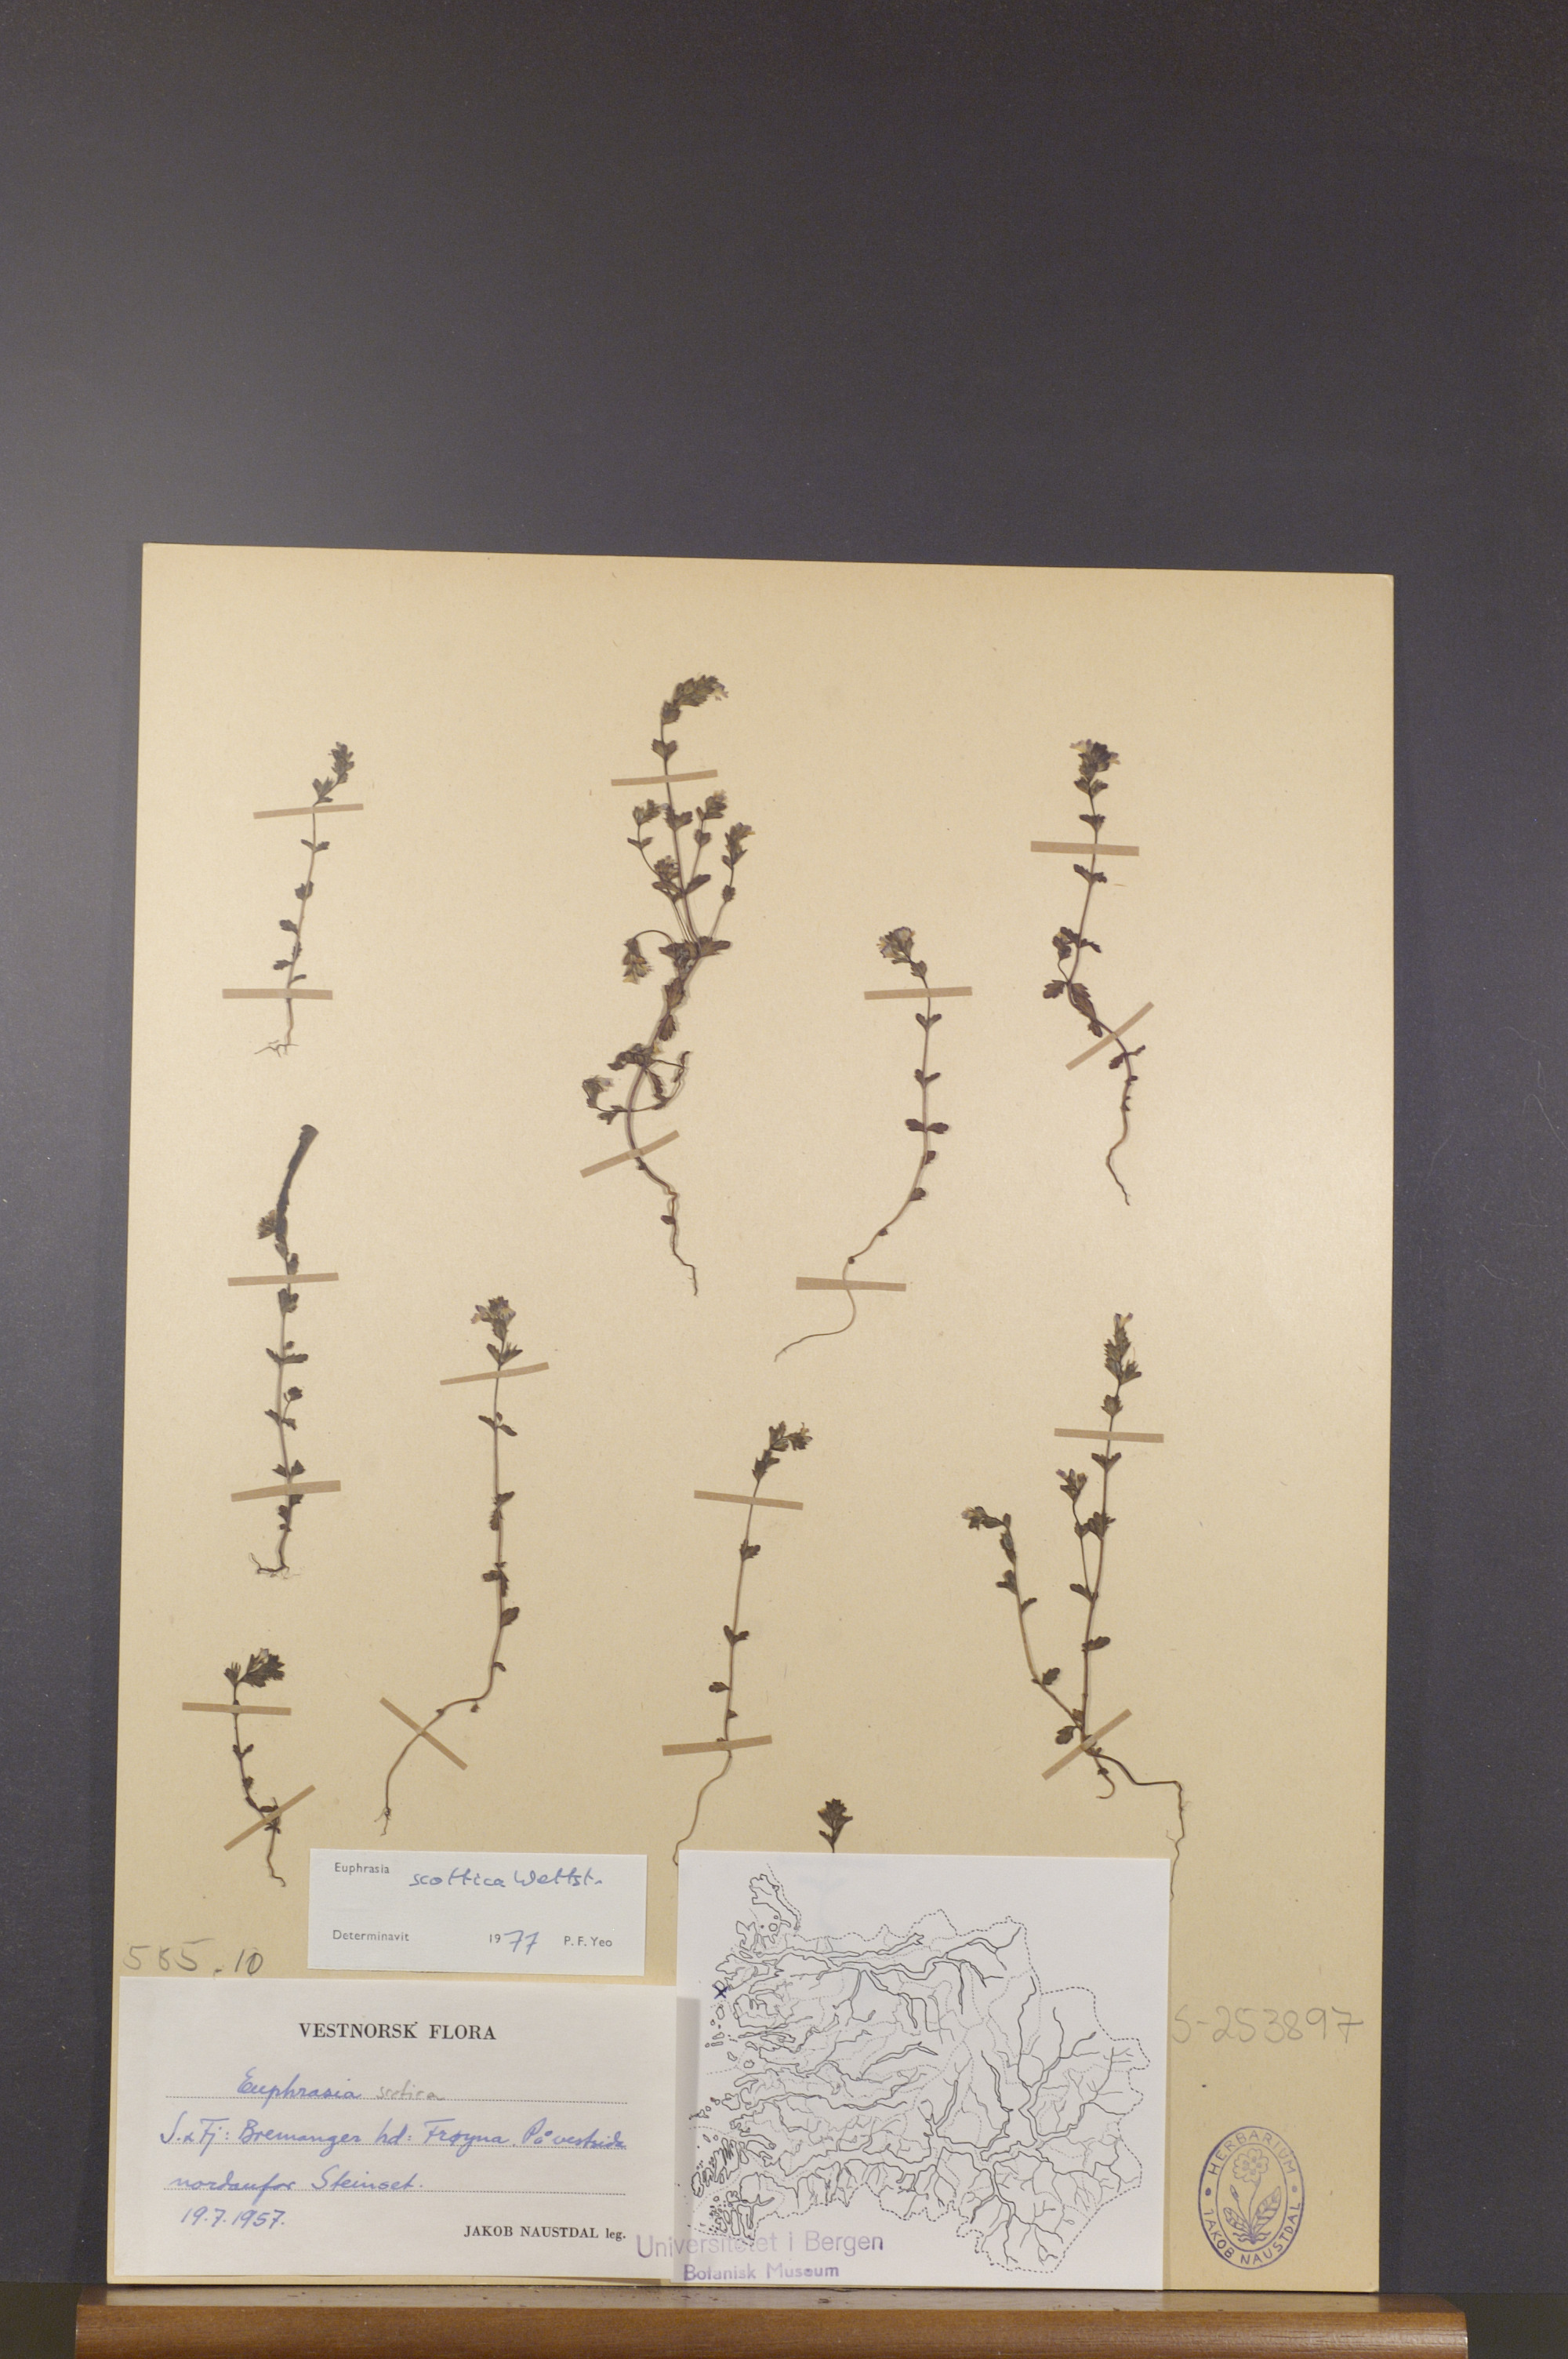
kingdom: Plantae
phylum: Tracheophyta
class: Magnoliopsida
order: Lamiales
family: Orobanchaceae
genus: Euphrasia
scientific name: Euphrasia scottica
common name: Slender scottish eyebright
